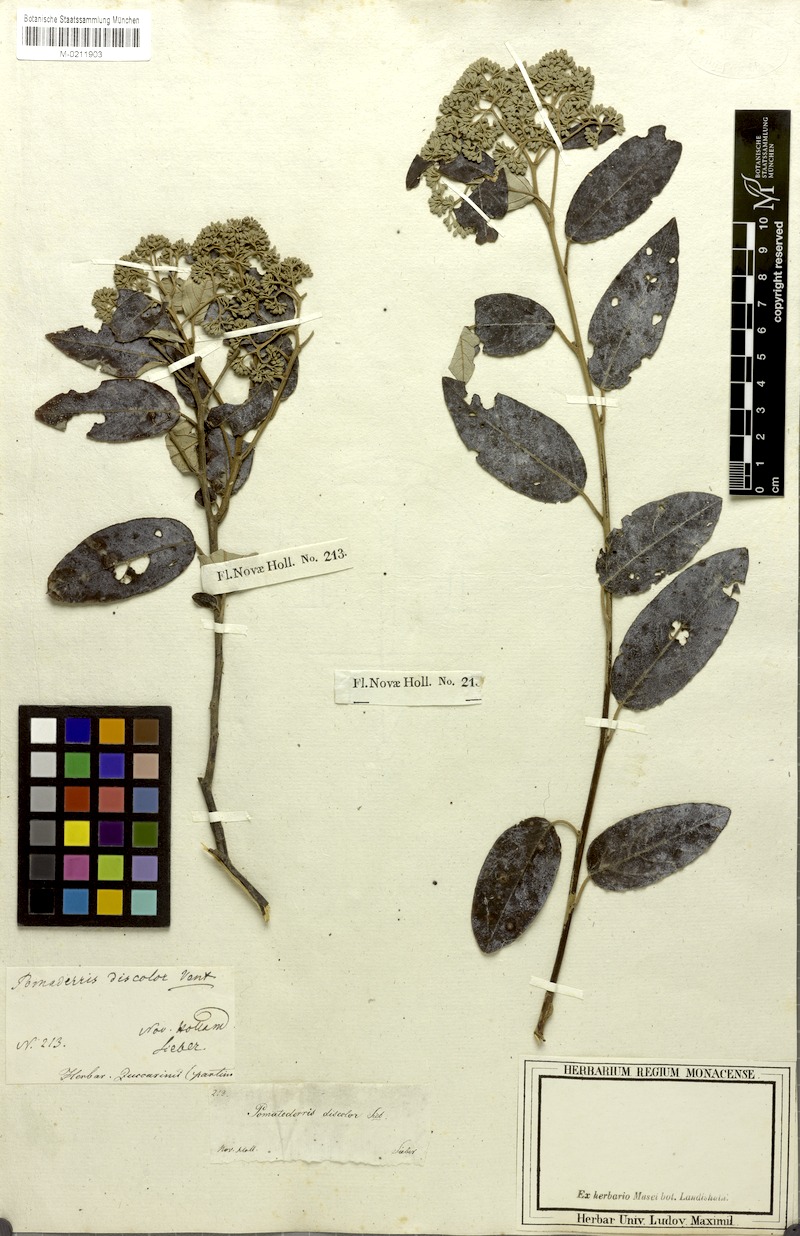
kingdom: Plantae
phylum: Tracheophyta
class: Magnoliopsida
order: Rosales
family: Rhamnaceae
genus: Pomaderris
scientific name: Pomaderris elliptica
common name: Yellow-dogwood
